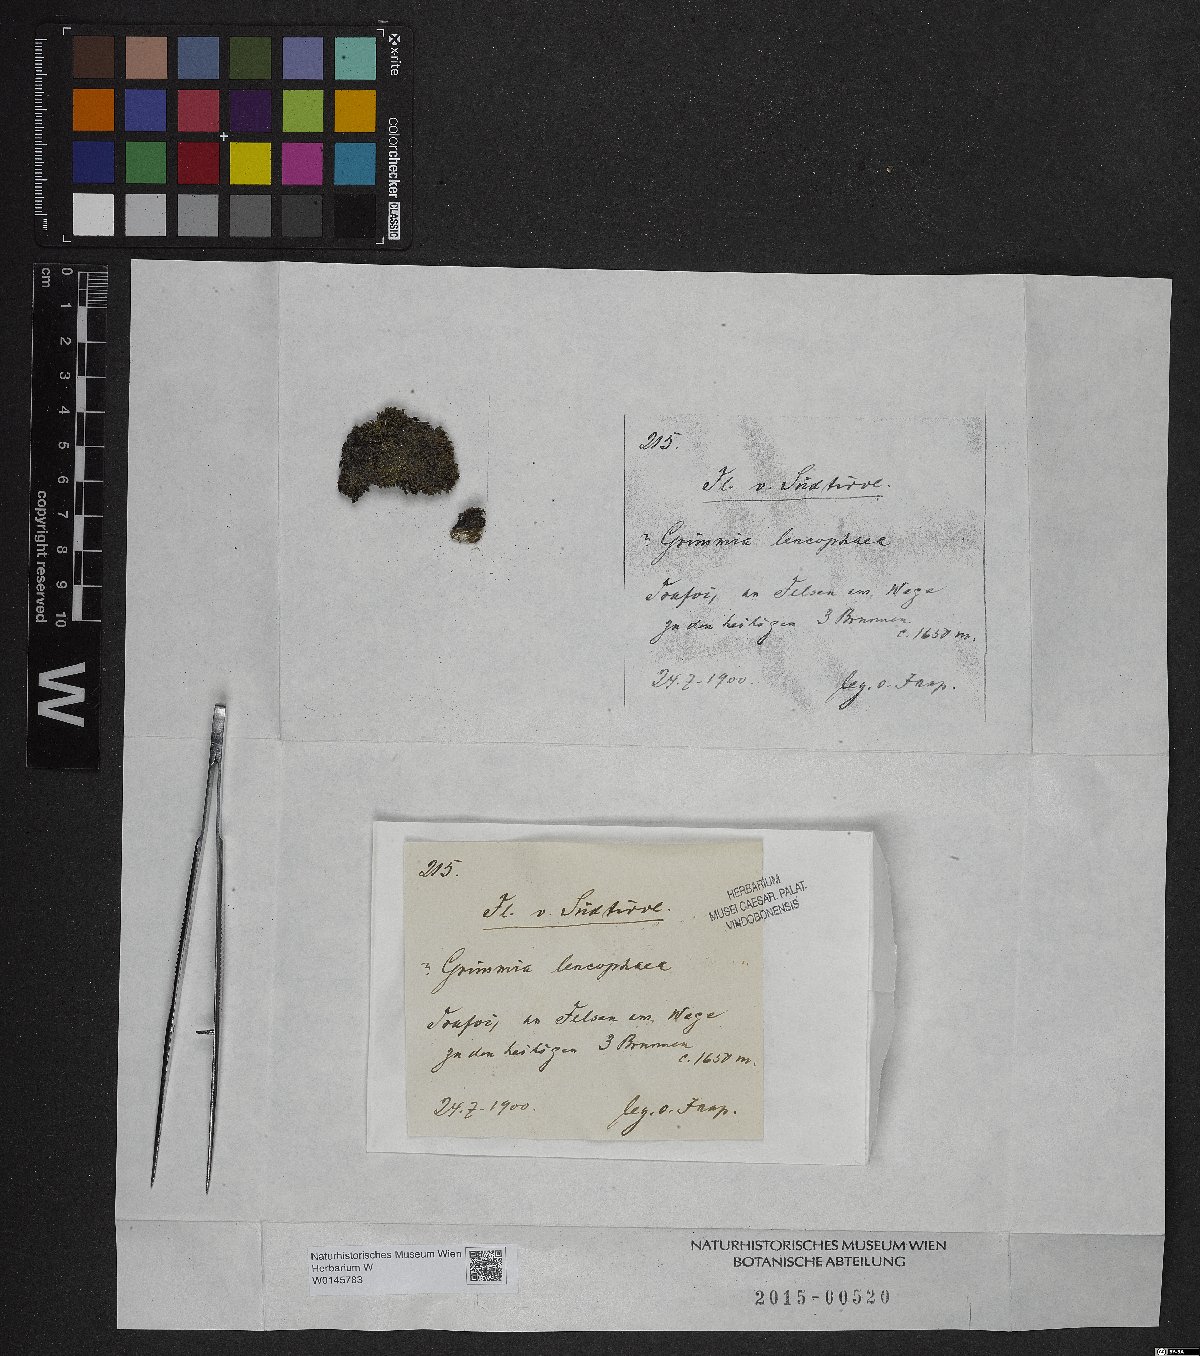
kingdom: Plantae
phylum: Bryophyta
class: Bryopsida
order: Grimmiales
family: Grimmiaceae
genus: Grimmia
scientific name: Grimmia laevigata
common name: Hoary grimmia
